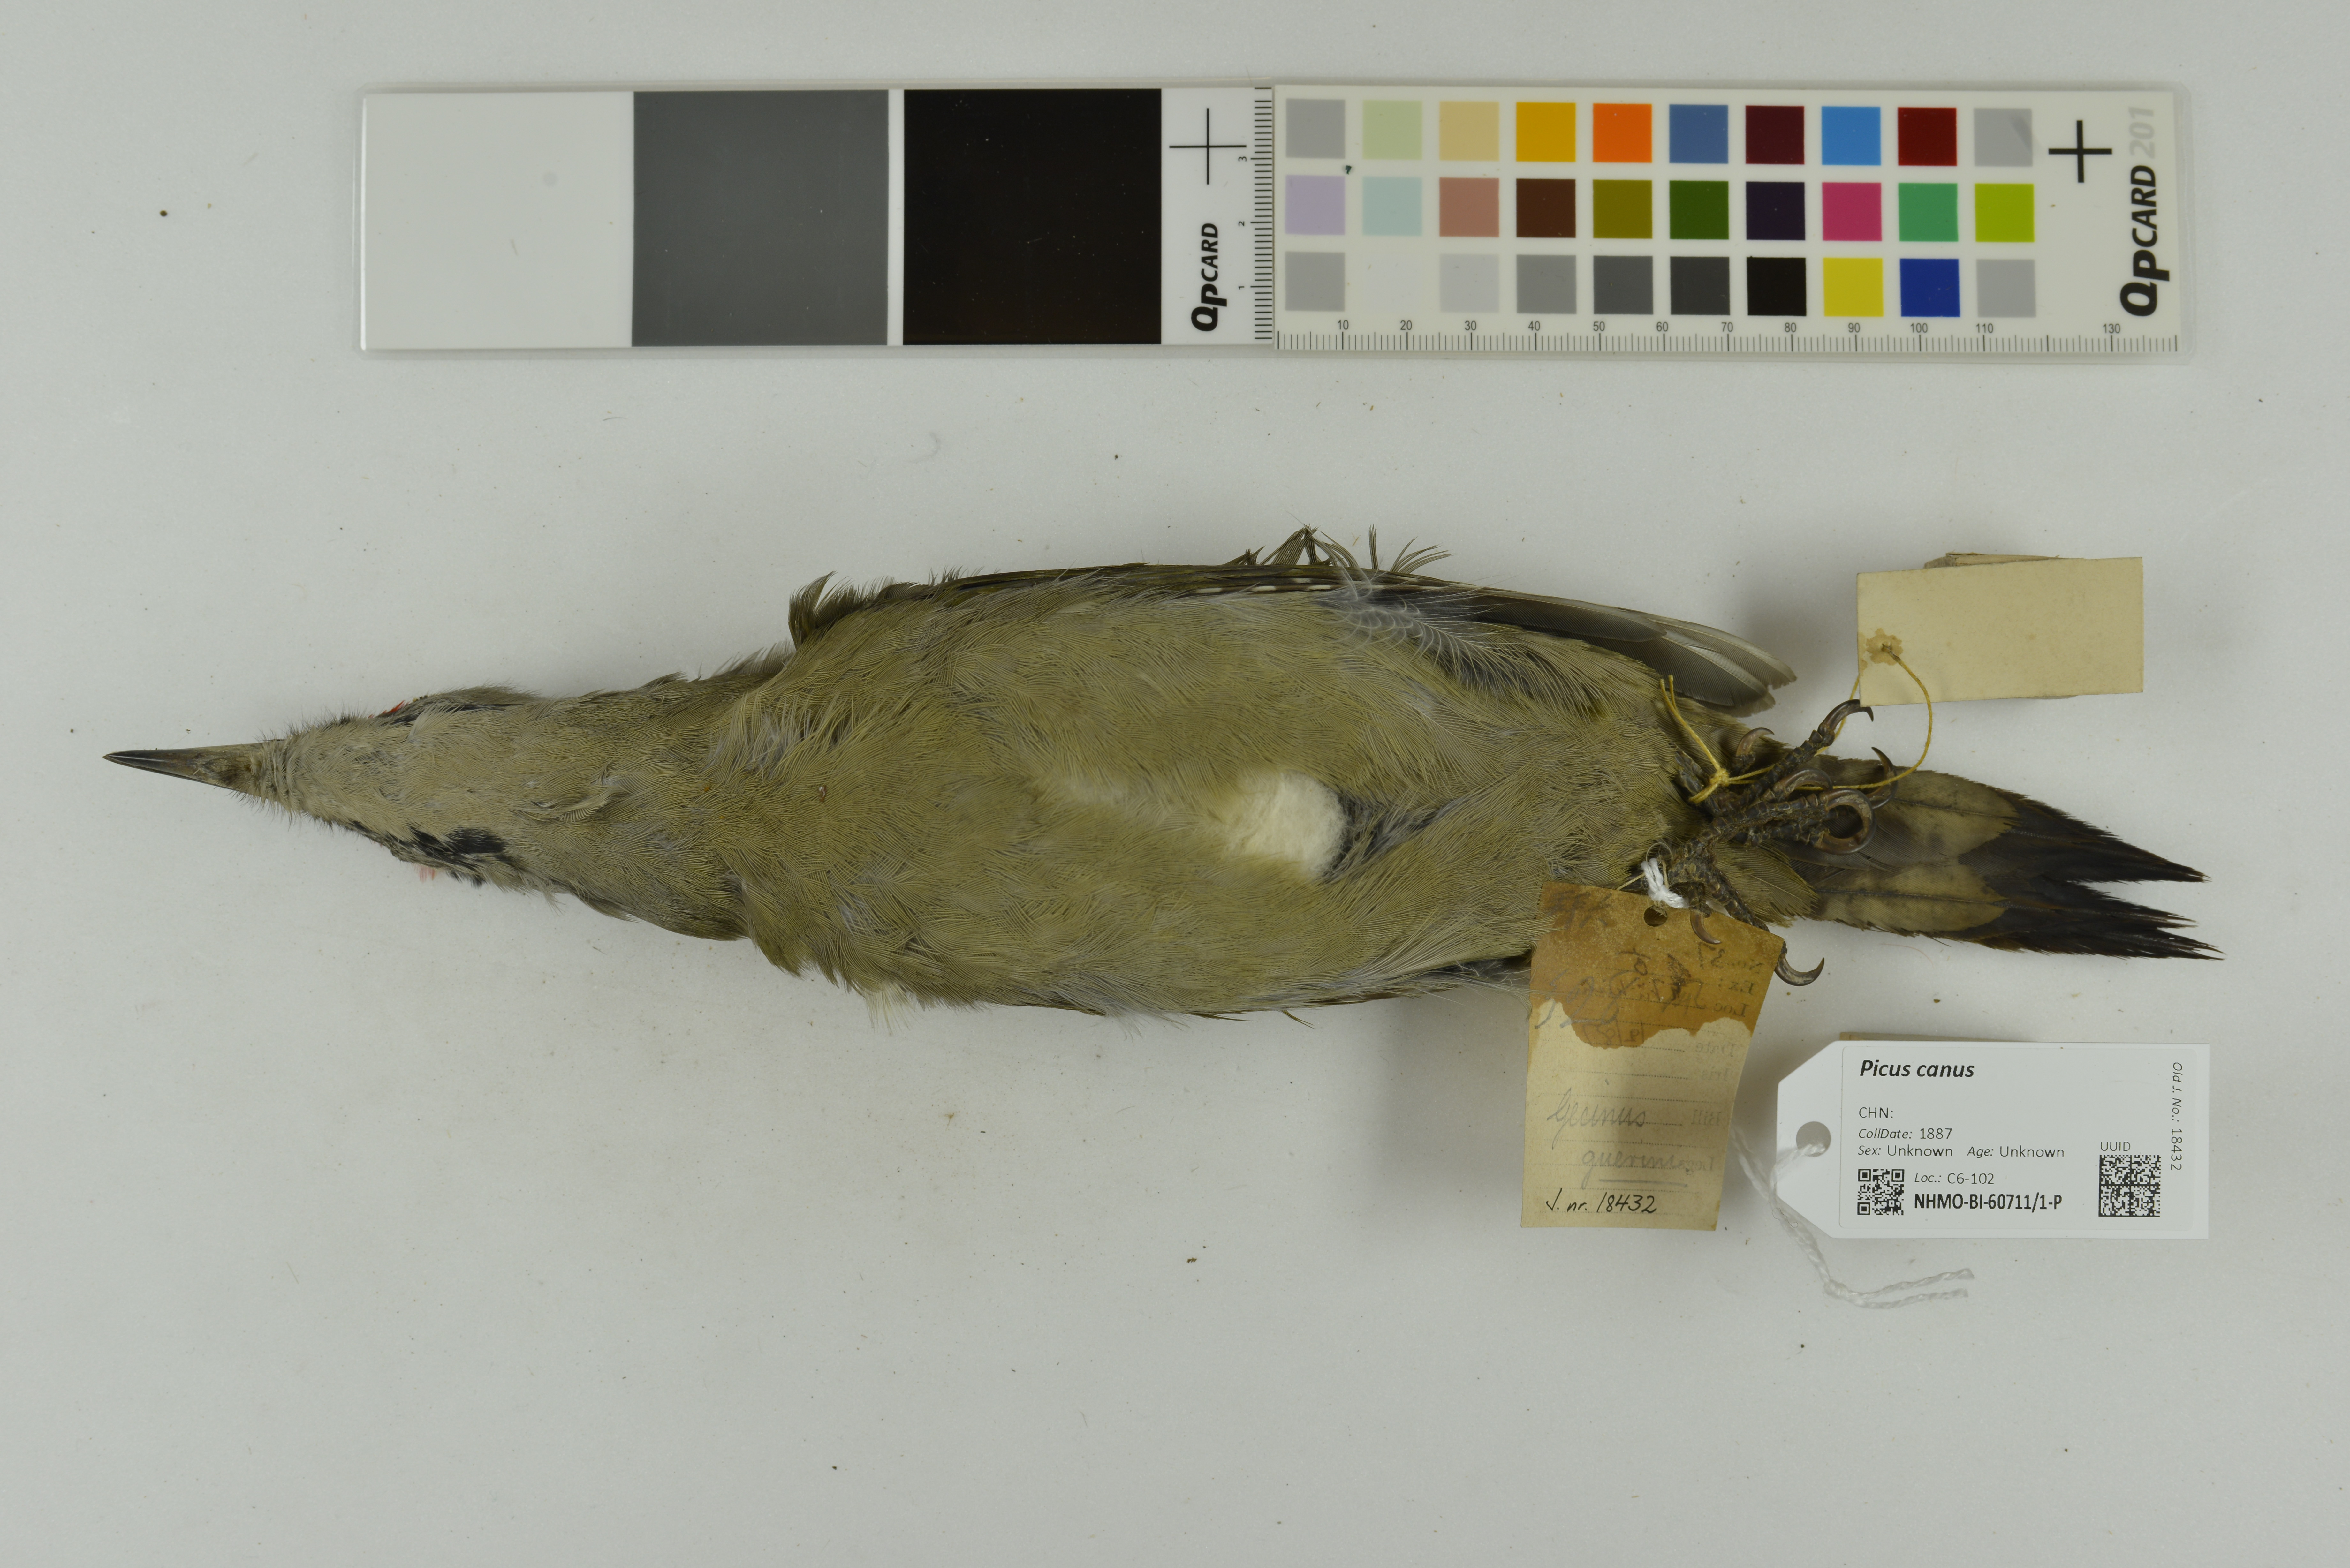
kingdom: Animalia
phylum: Chordata
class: Aves
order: Piciformes
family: Picidae
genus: Picus
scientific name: Picus canus
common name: Grey-headed woodpecker
